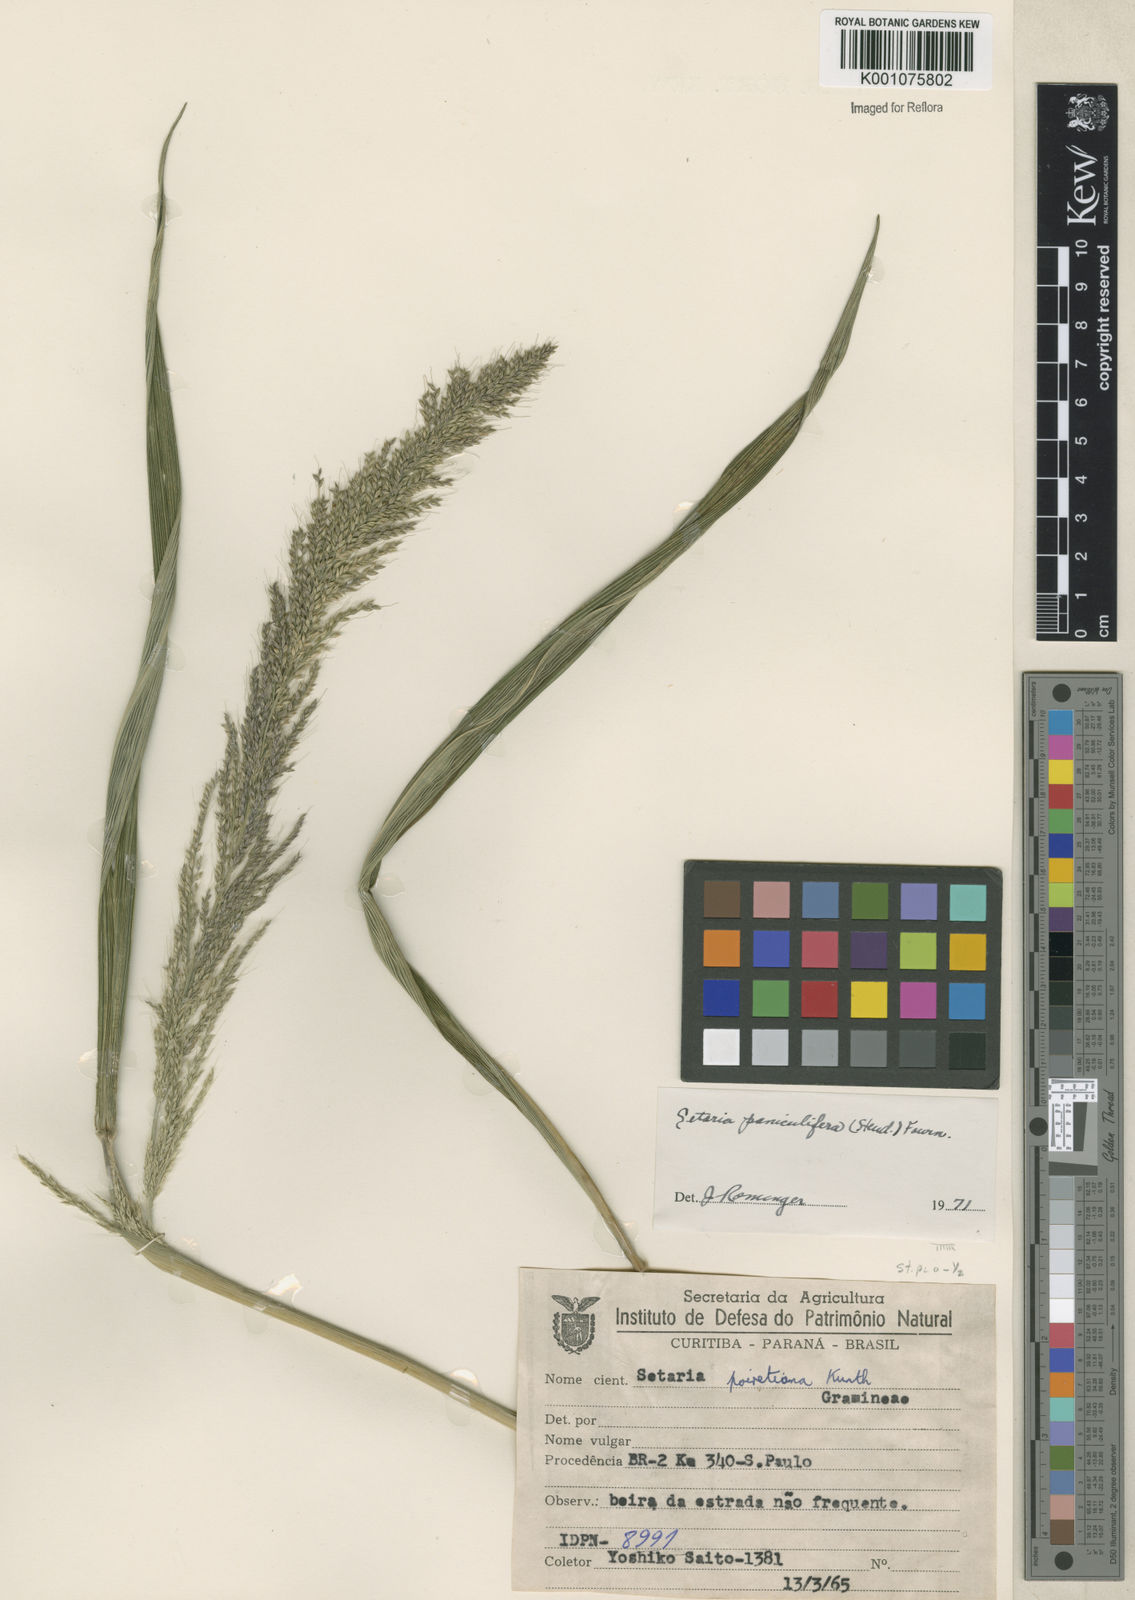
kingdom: Plantae
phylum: Tracheophyta
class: Liliopsida
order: Poales
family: Poaceae
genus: Setaria
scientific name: Setaria megaphylla
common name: Bigleaf bristlegrass
